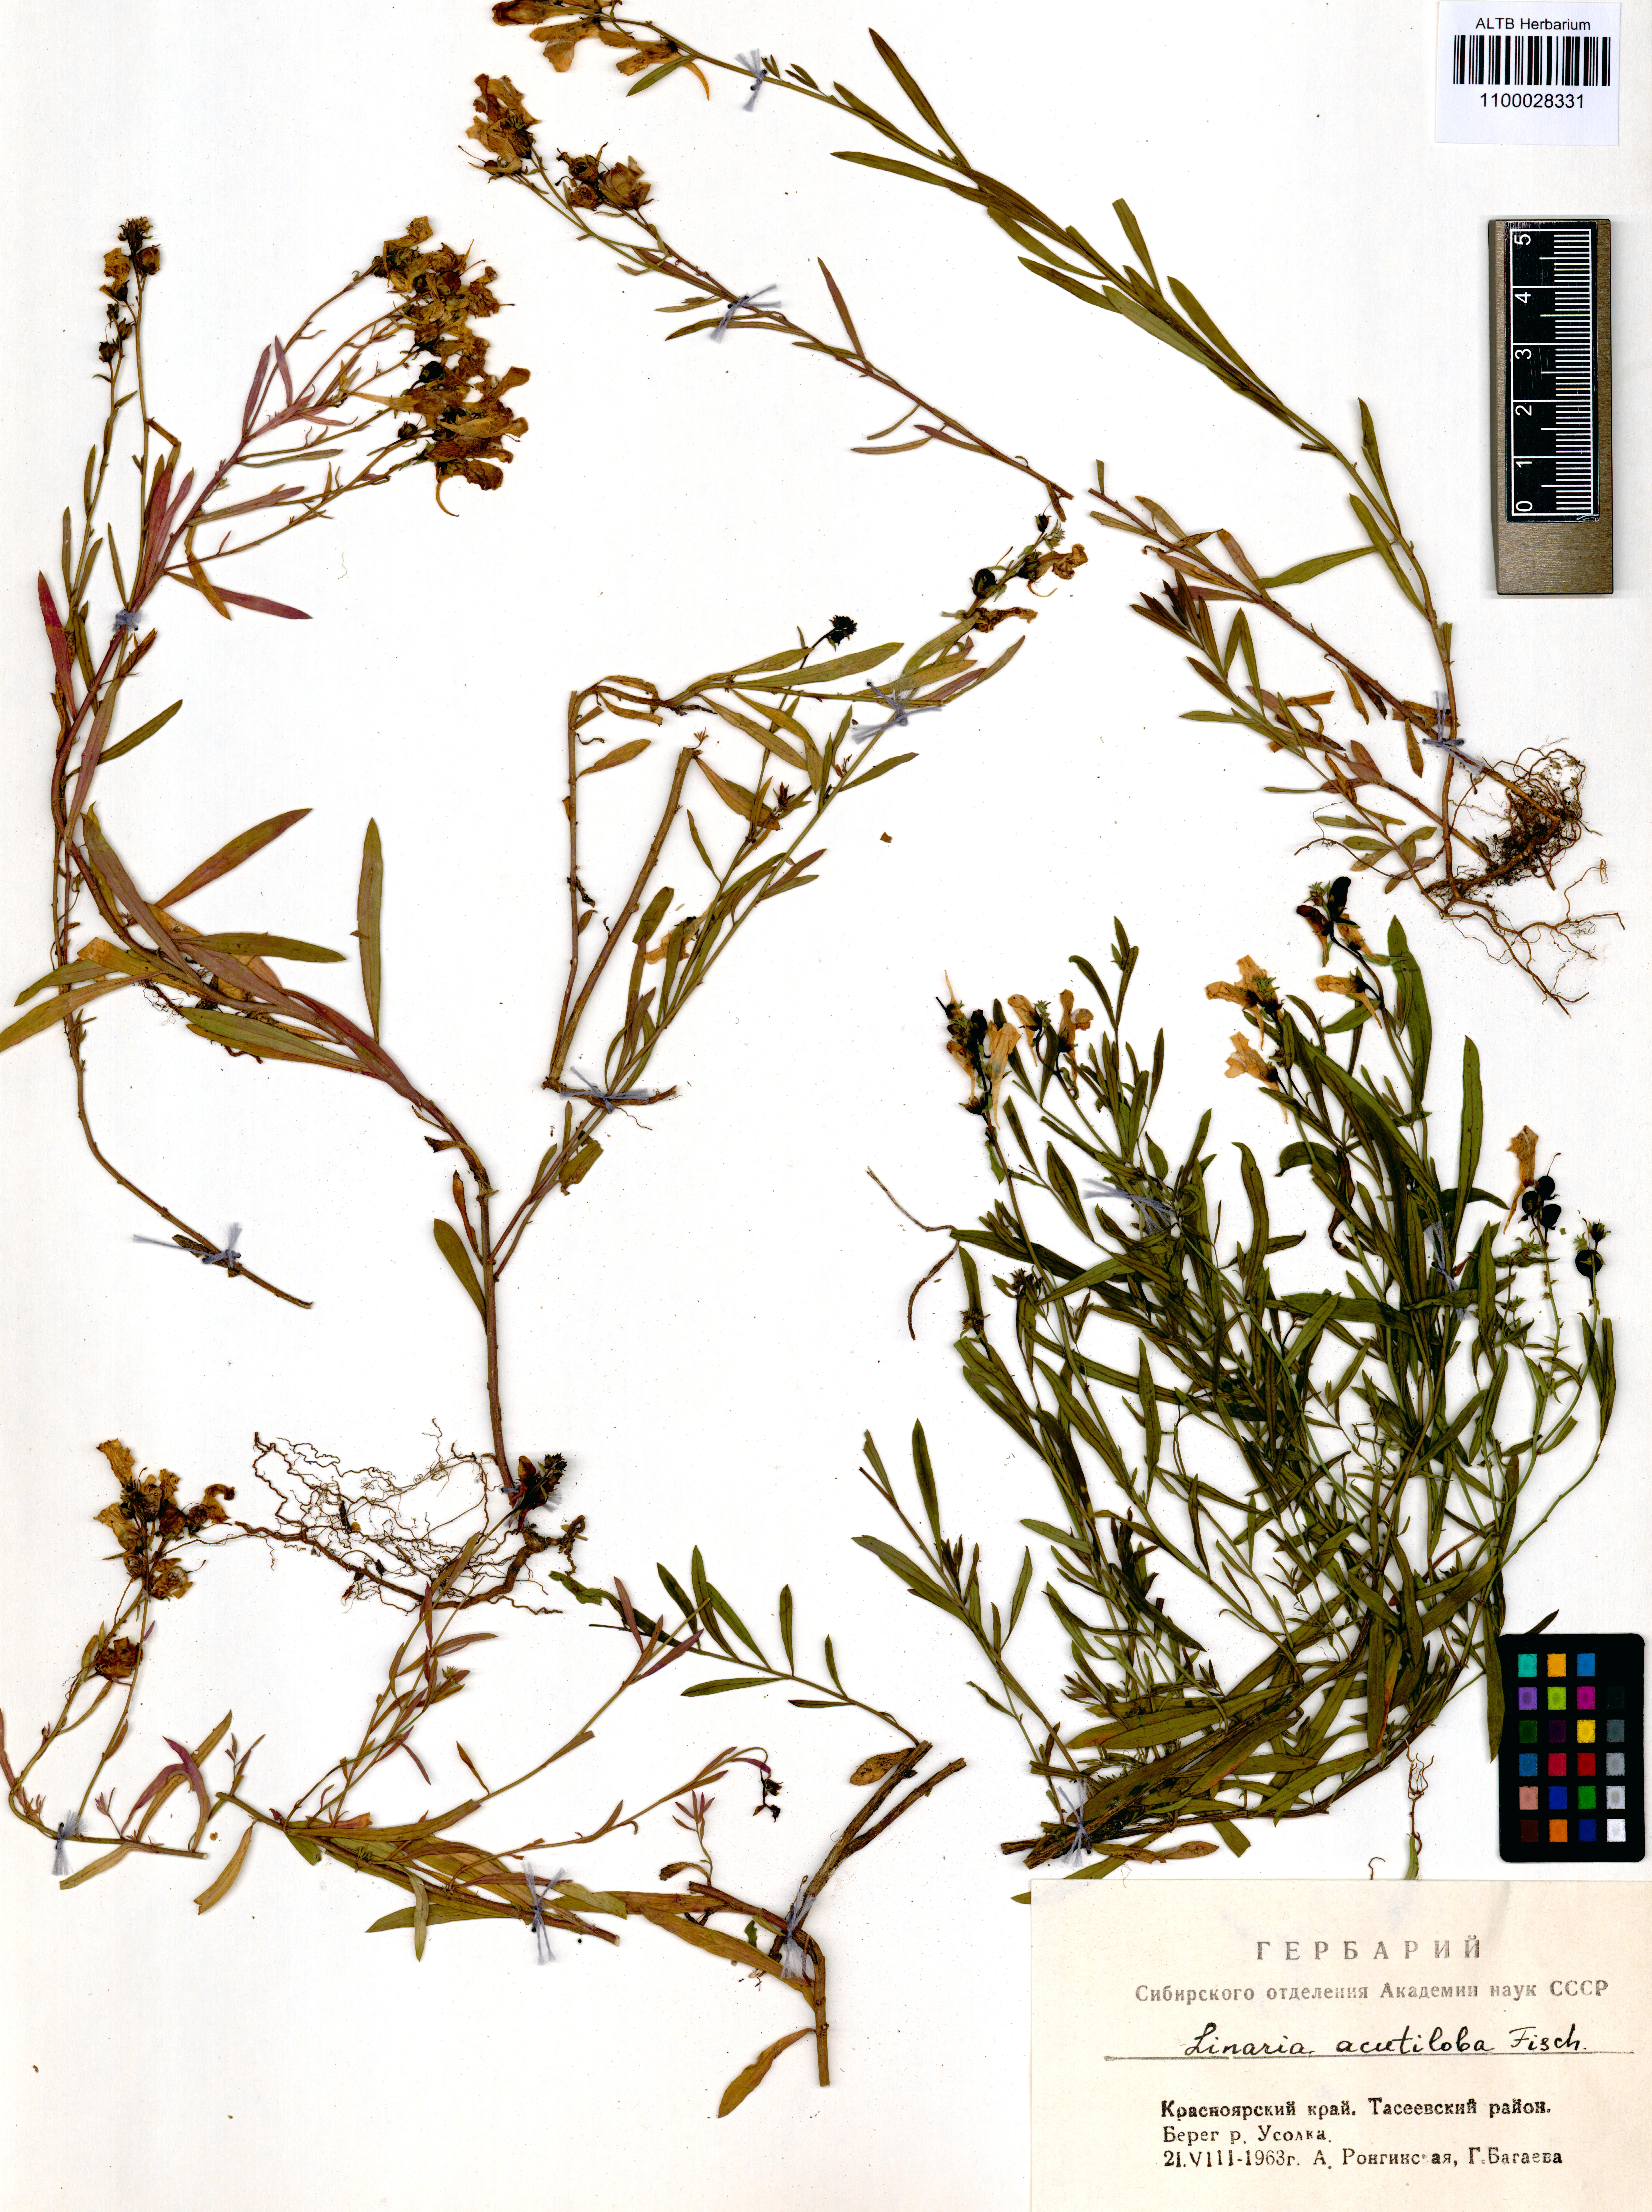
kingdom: Plantae
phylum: Tracheophyta
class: Magnoliopsida
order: Lamiales
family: Plantaginaceae
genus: Linaria
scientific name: Linaria acutiloba
